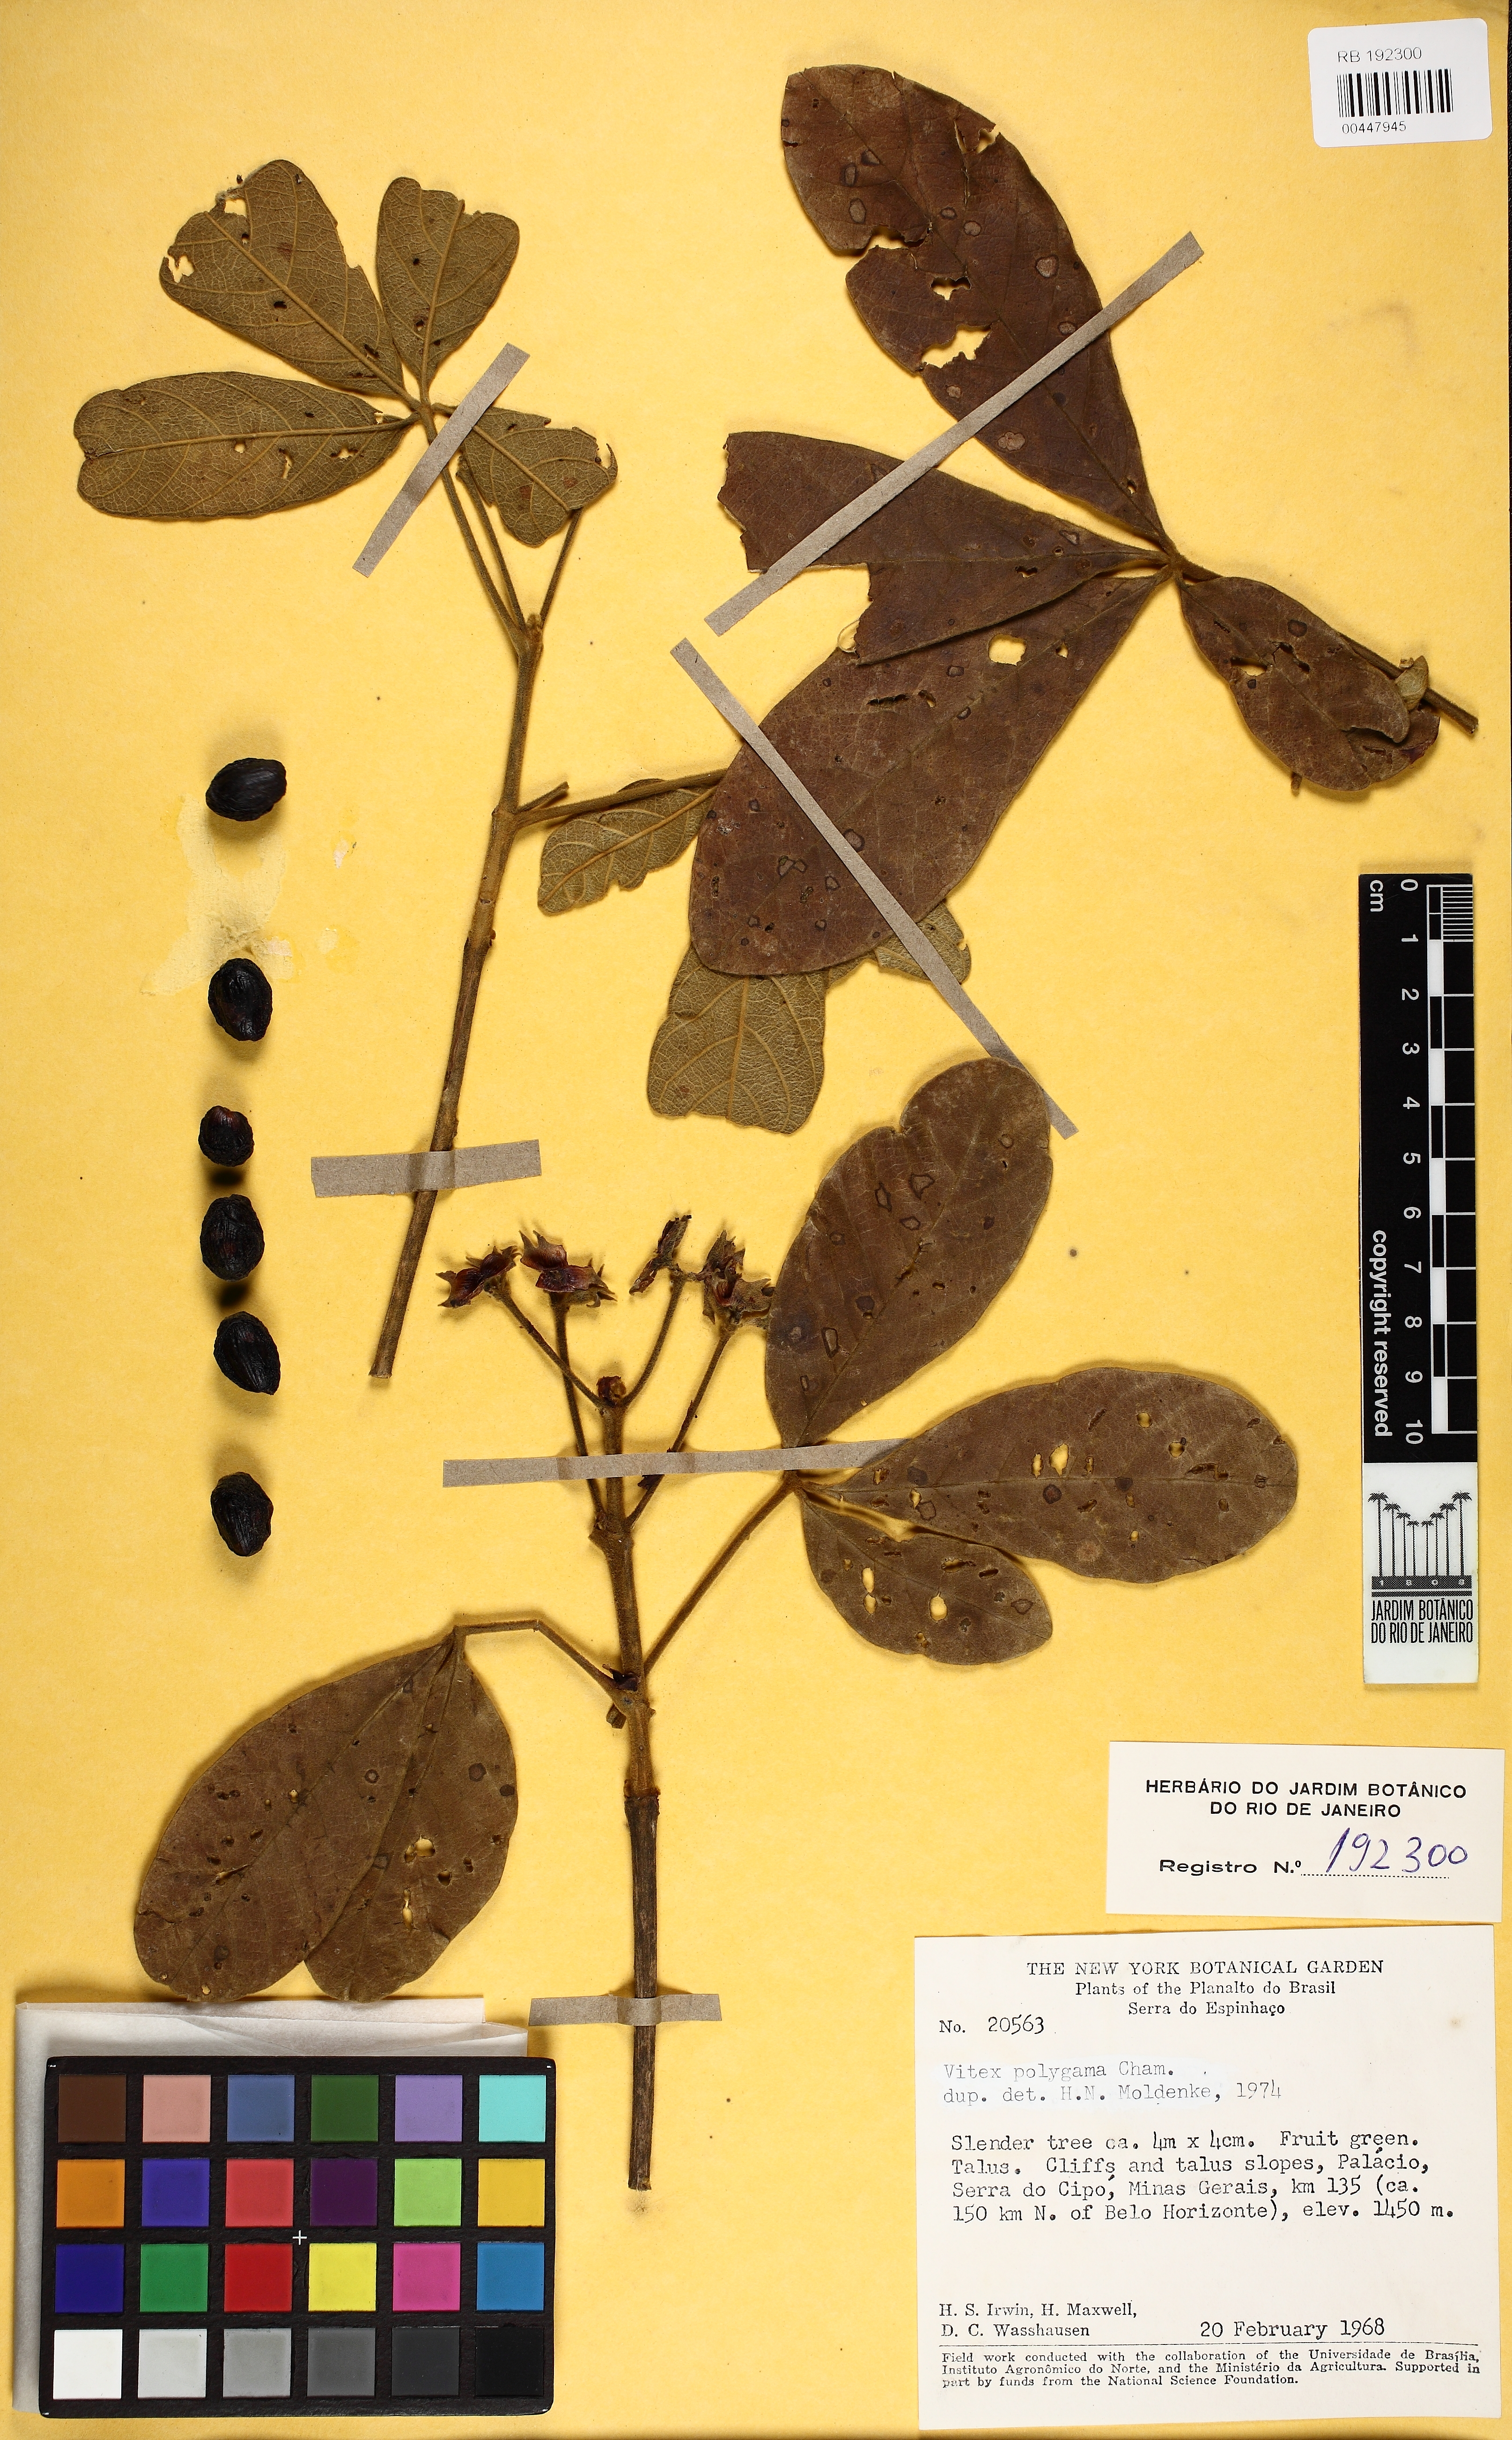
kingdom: Plantae
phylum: Tracheophyta
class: Magnoliopsida
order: Lamiales
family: Lamiaceae
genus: Vitex
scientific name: Vitex polygama
